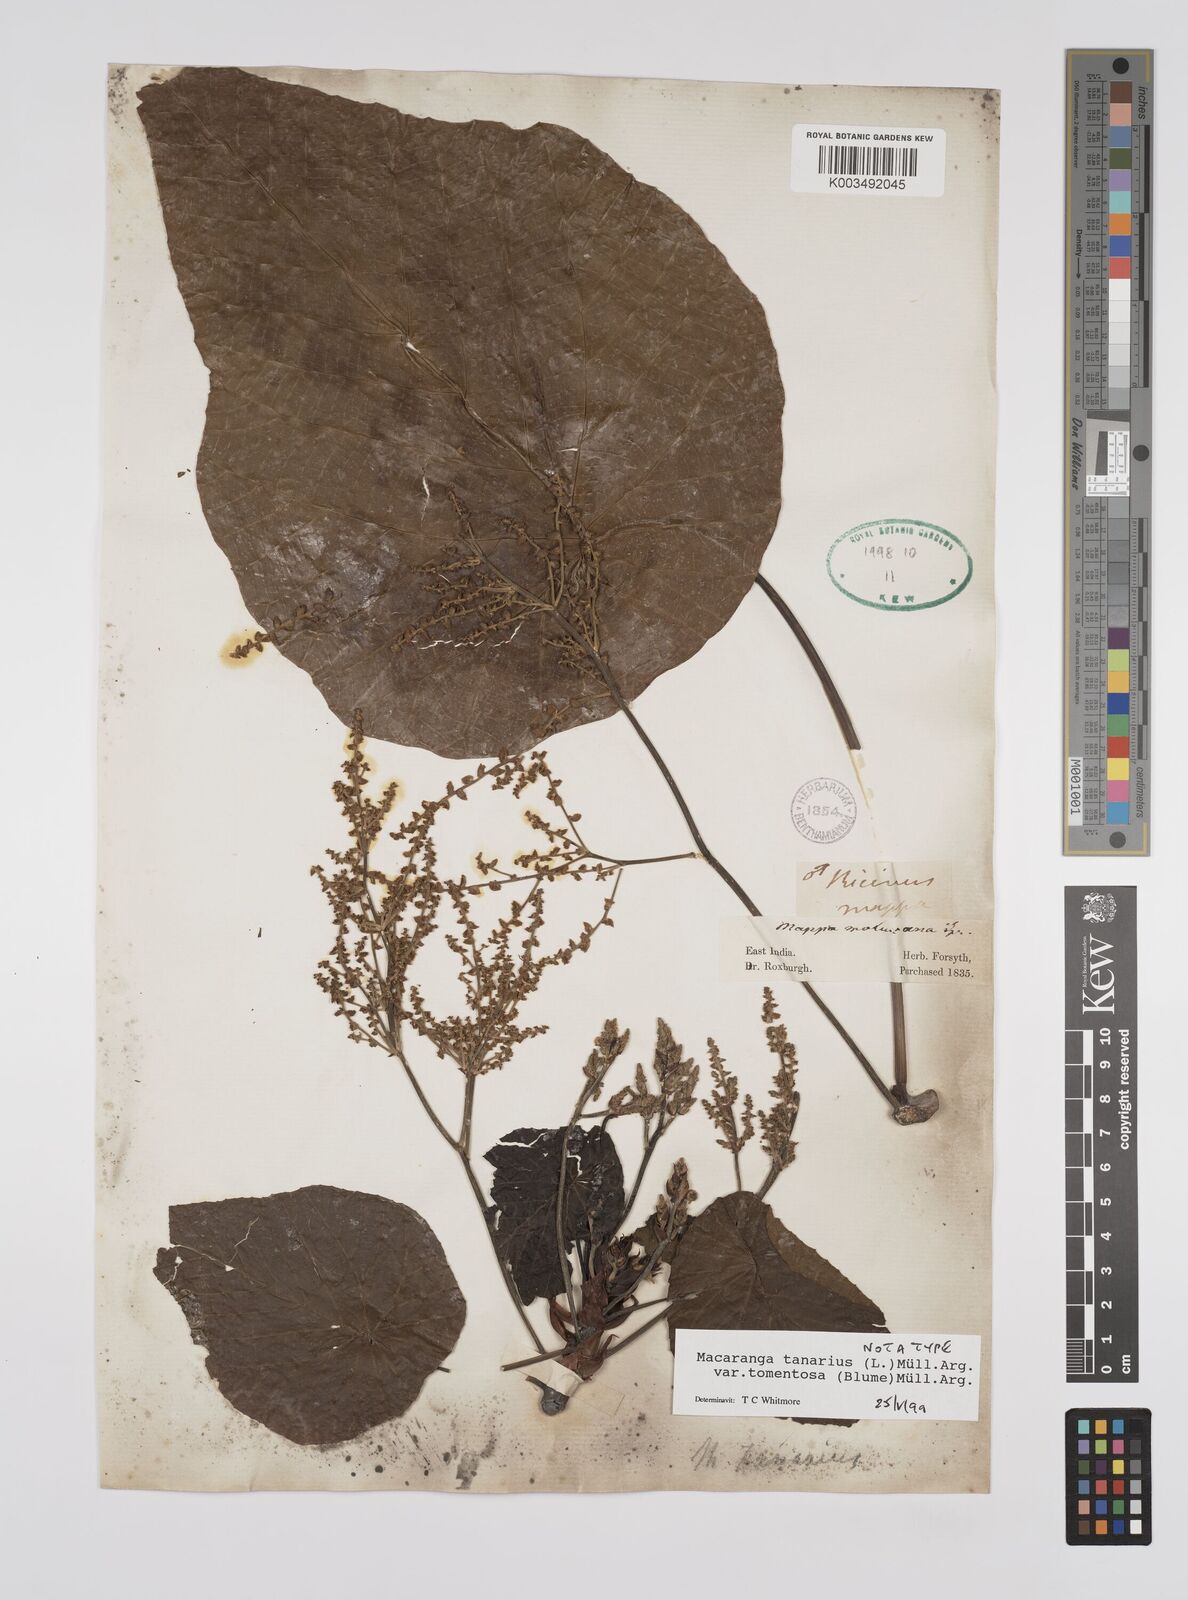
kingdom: Plantae
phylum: Tracheophyta
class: Magnoliopsida
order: Malpighiales
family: Euphorbiaceae
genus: Macaranga
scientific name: Macaranga tanarius
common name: Parasol leaf tree
